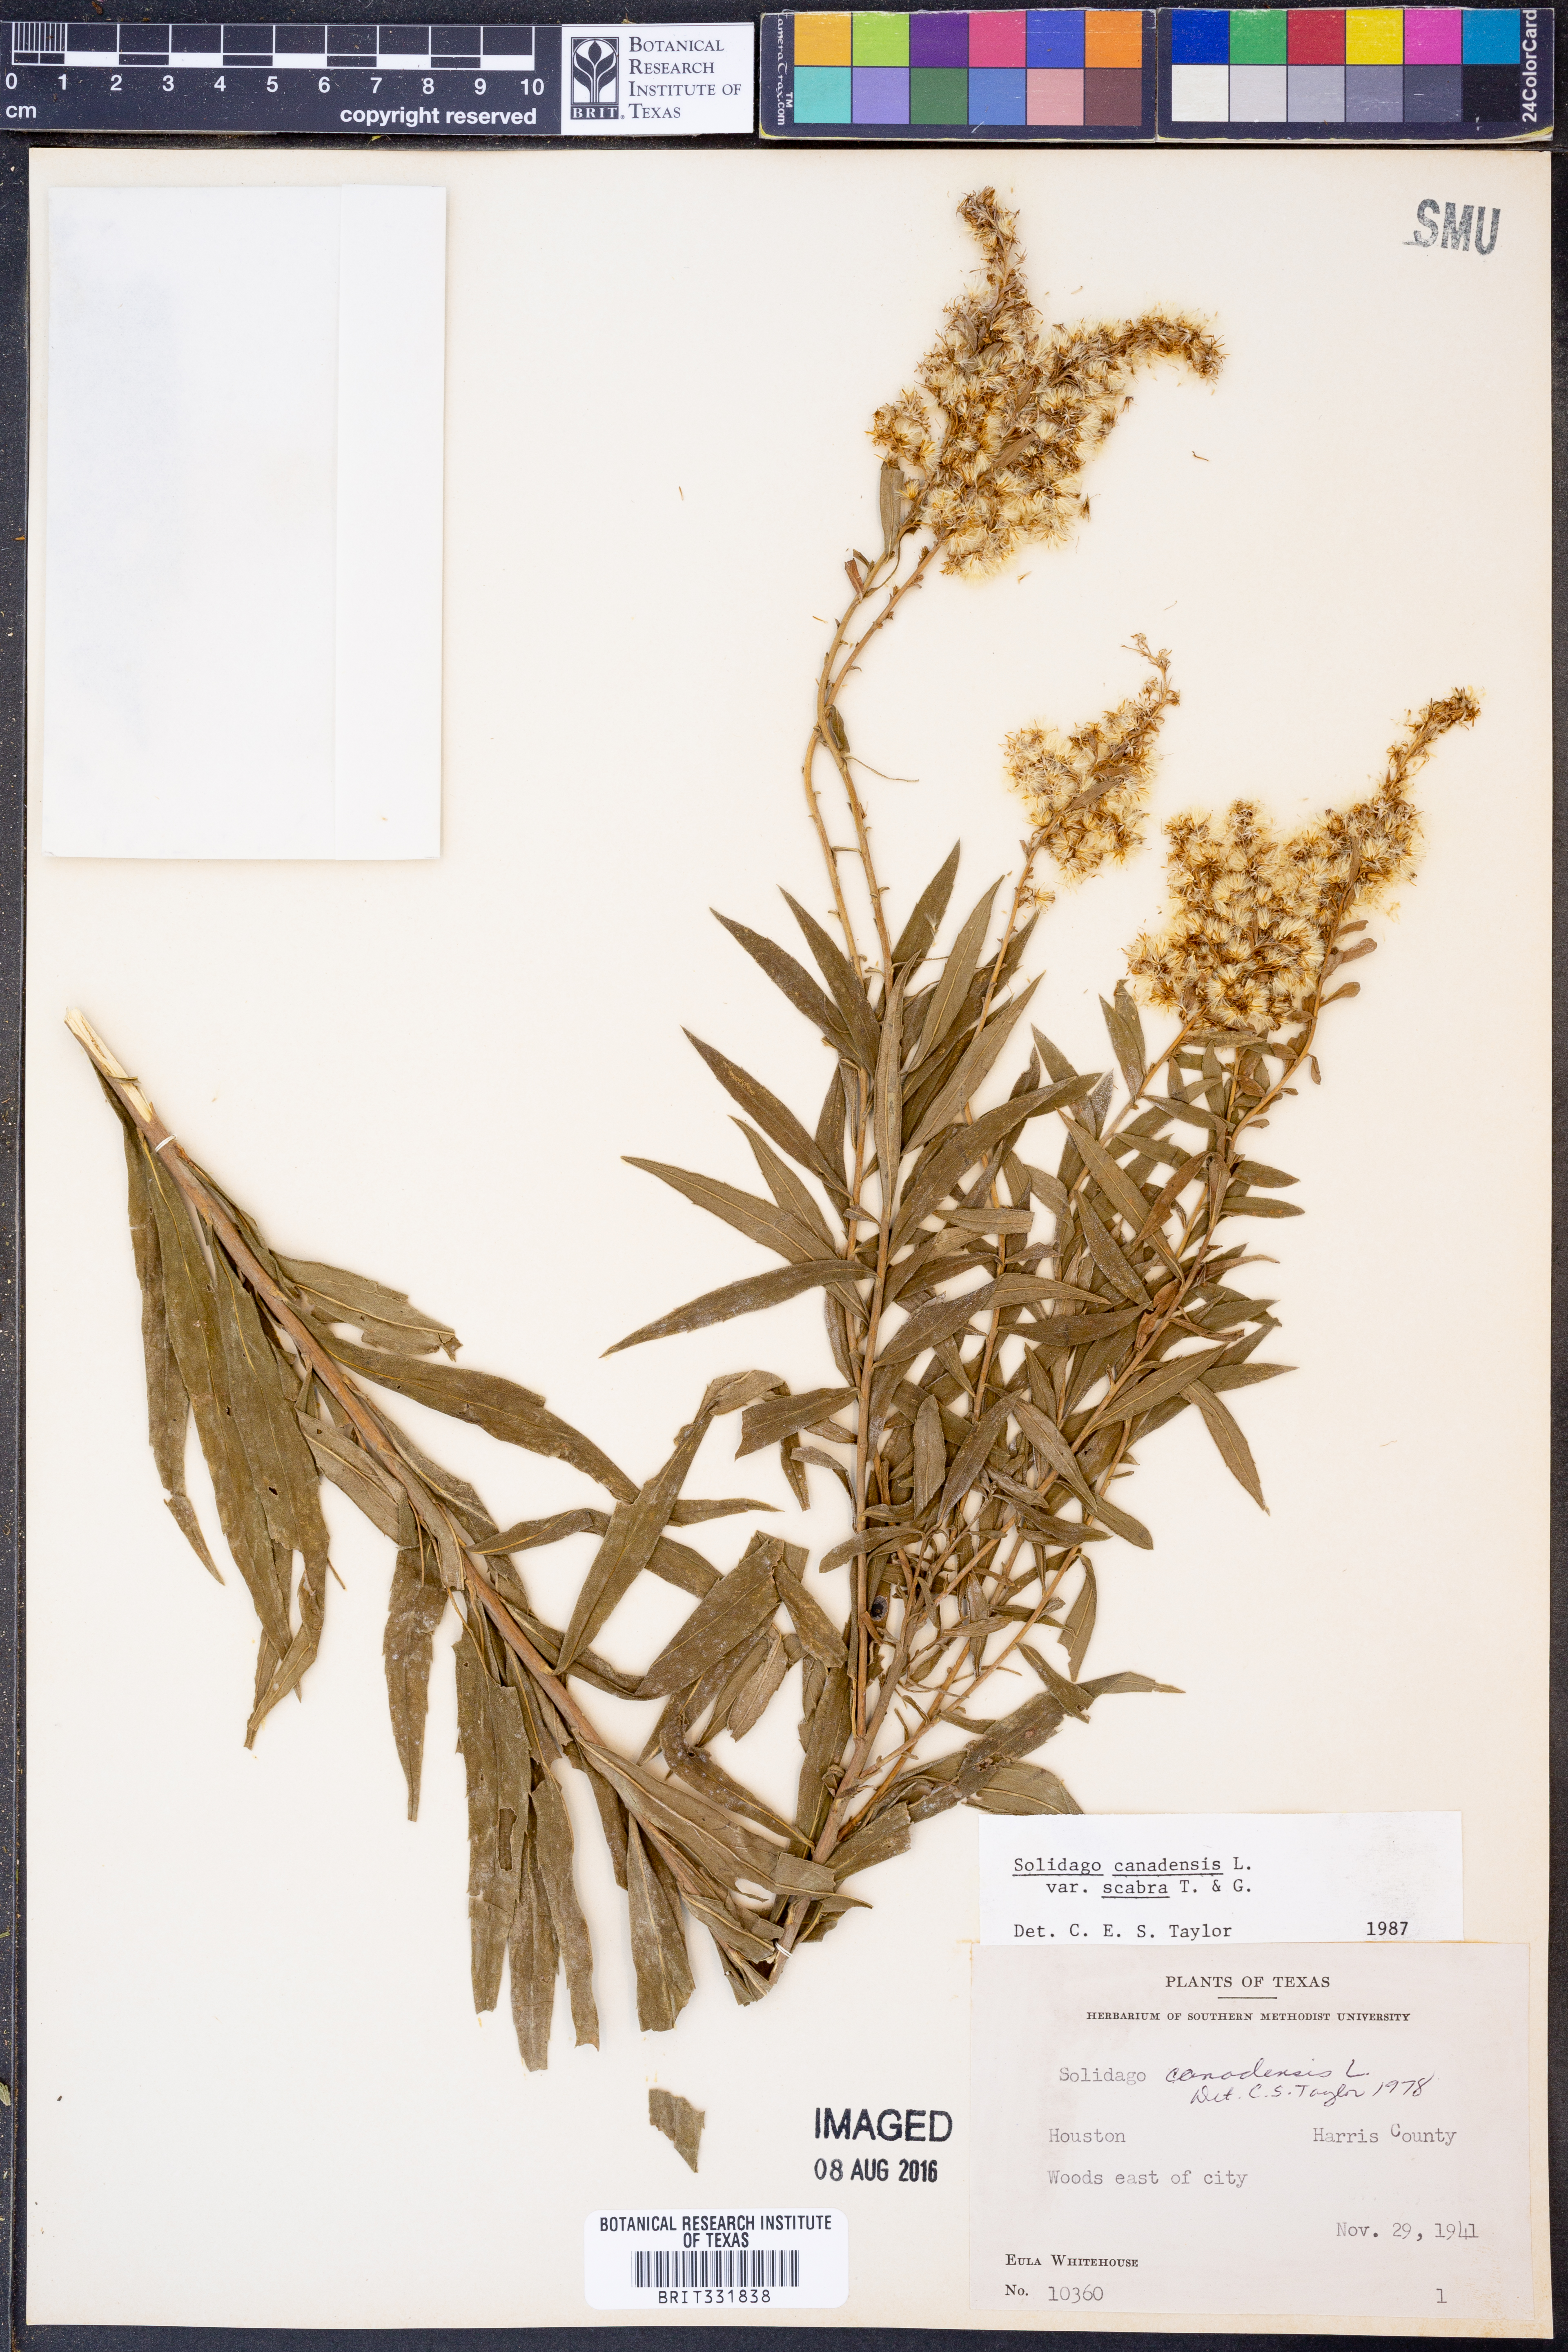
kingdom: Plantae
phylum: Tracheophyta
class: Magnoliopsida
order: Asterales
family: Asteraceae
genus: Solidago
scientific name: Solidago altissima
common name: Late goldenrod
